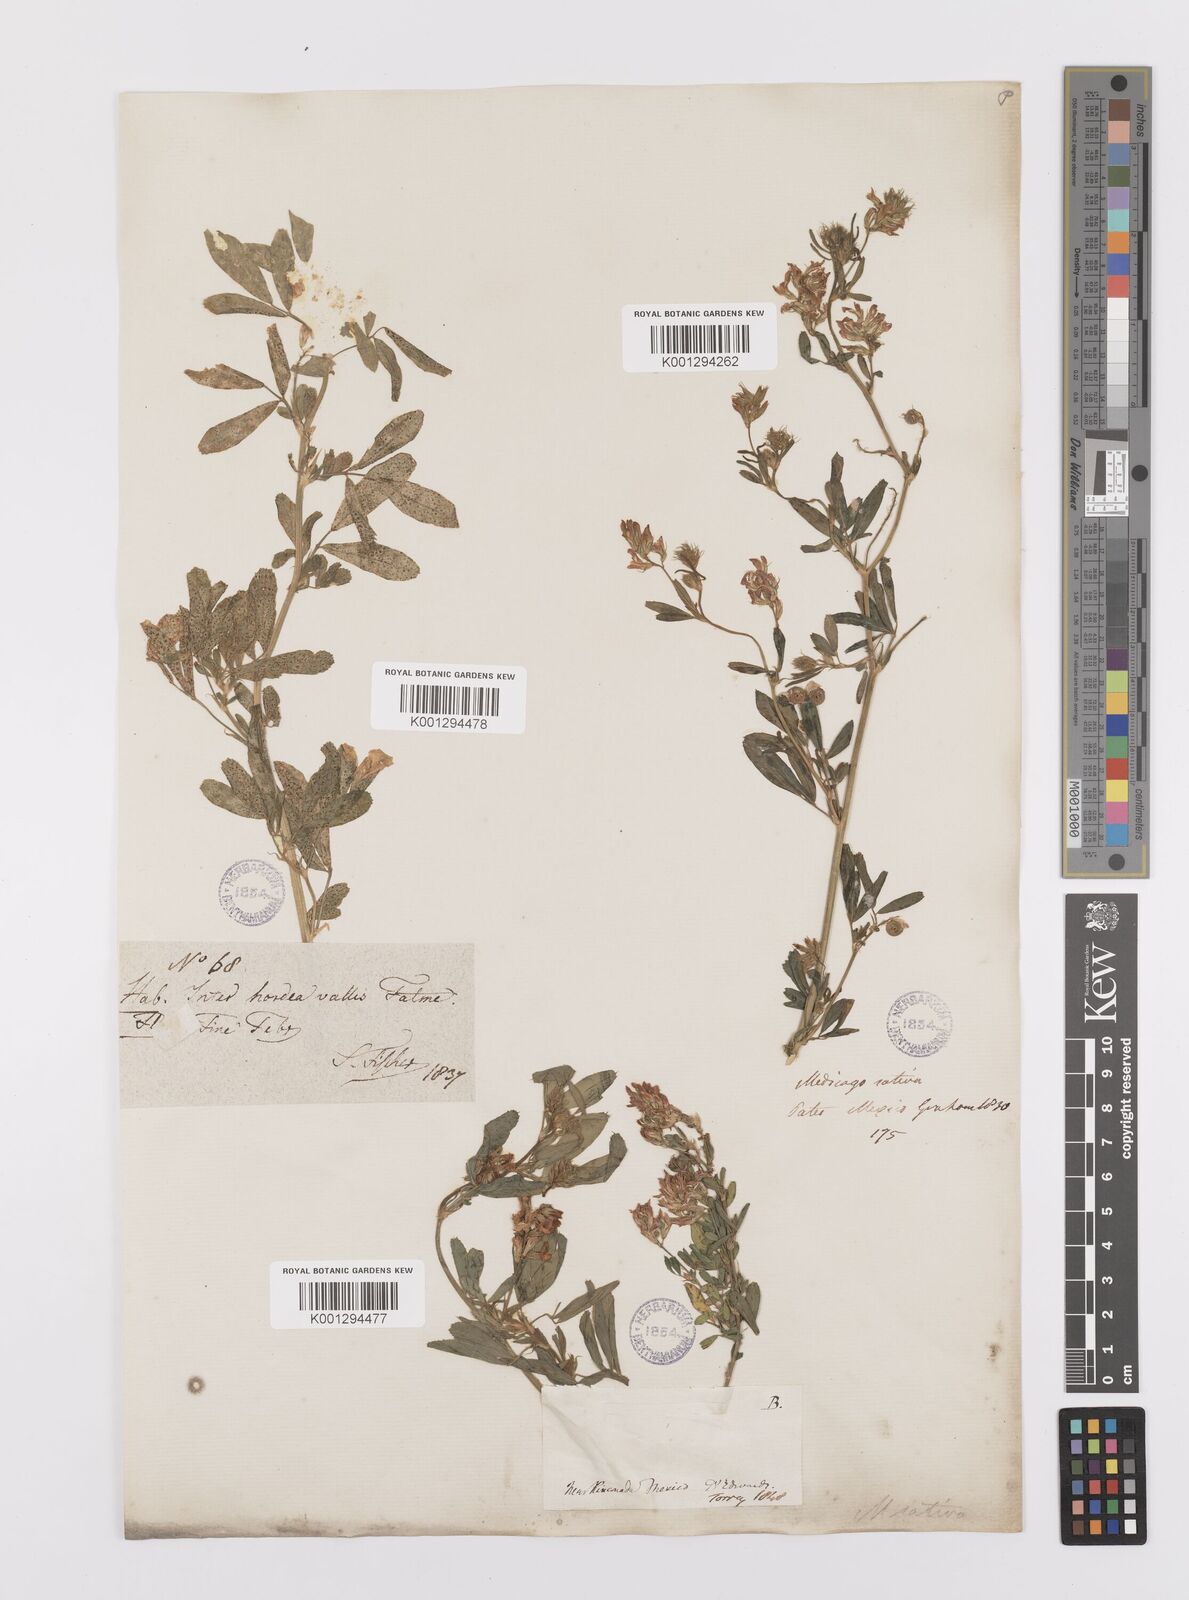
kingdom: Plantae
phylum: Tracheophyta
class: Magnoliopsida
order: Fabales
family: Fabaceae
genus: Medicago
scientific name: Medicago sativa
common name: Alfalfa
